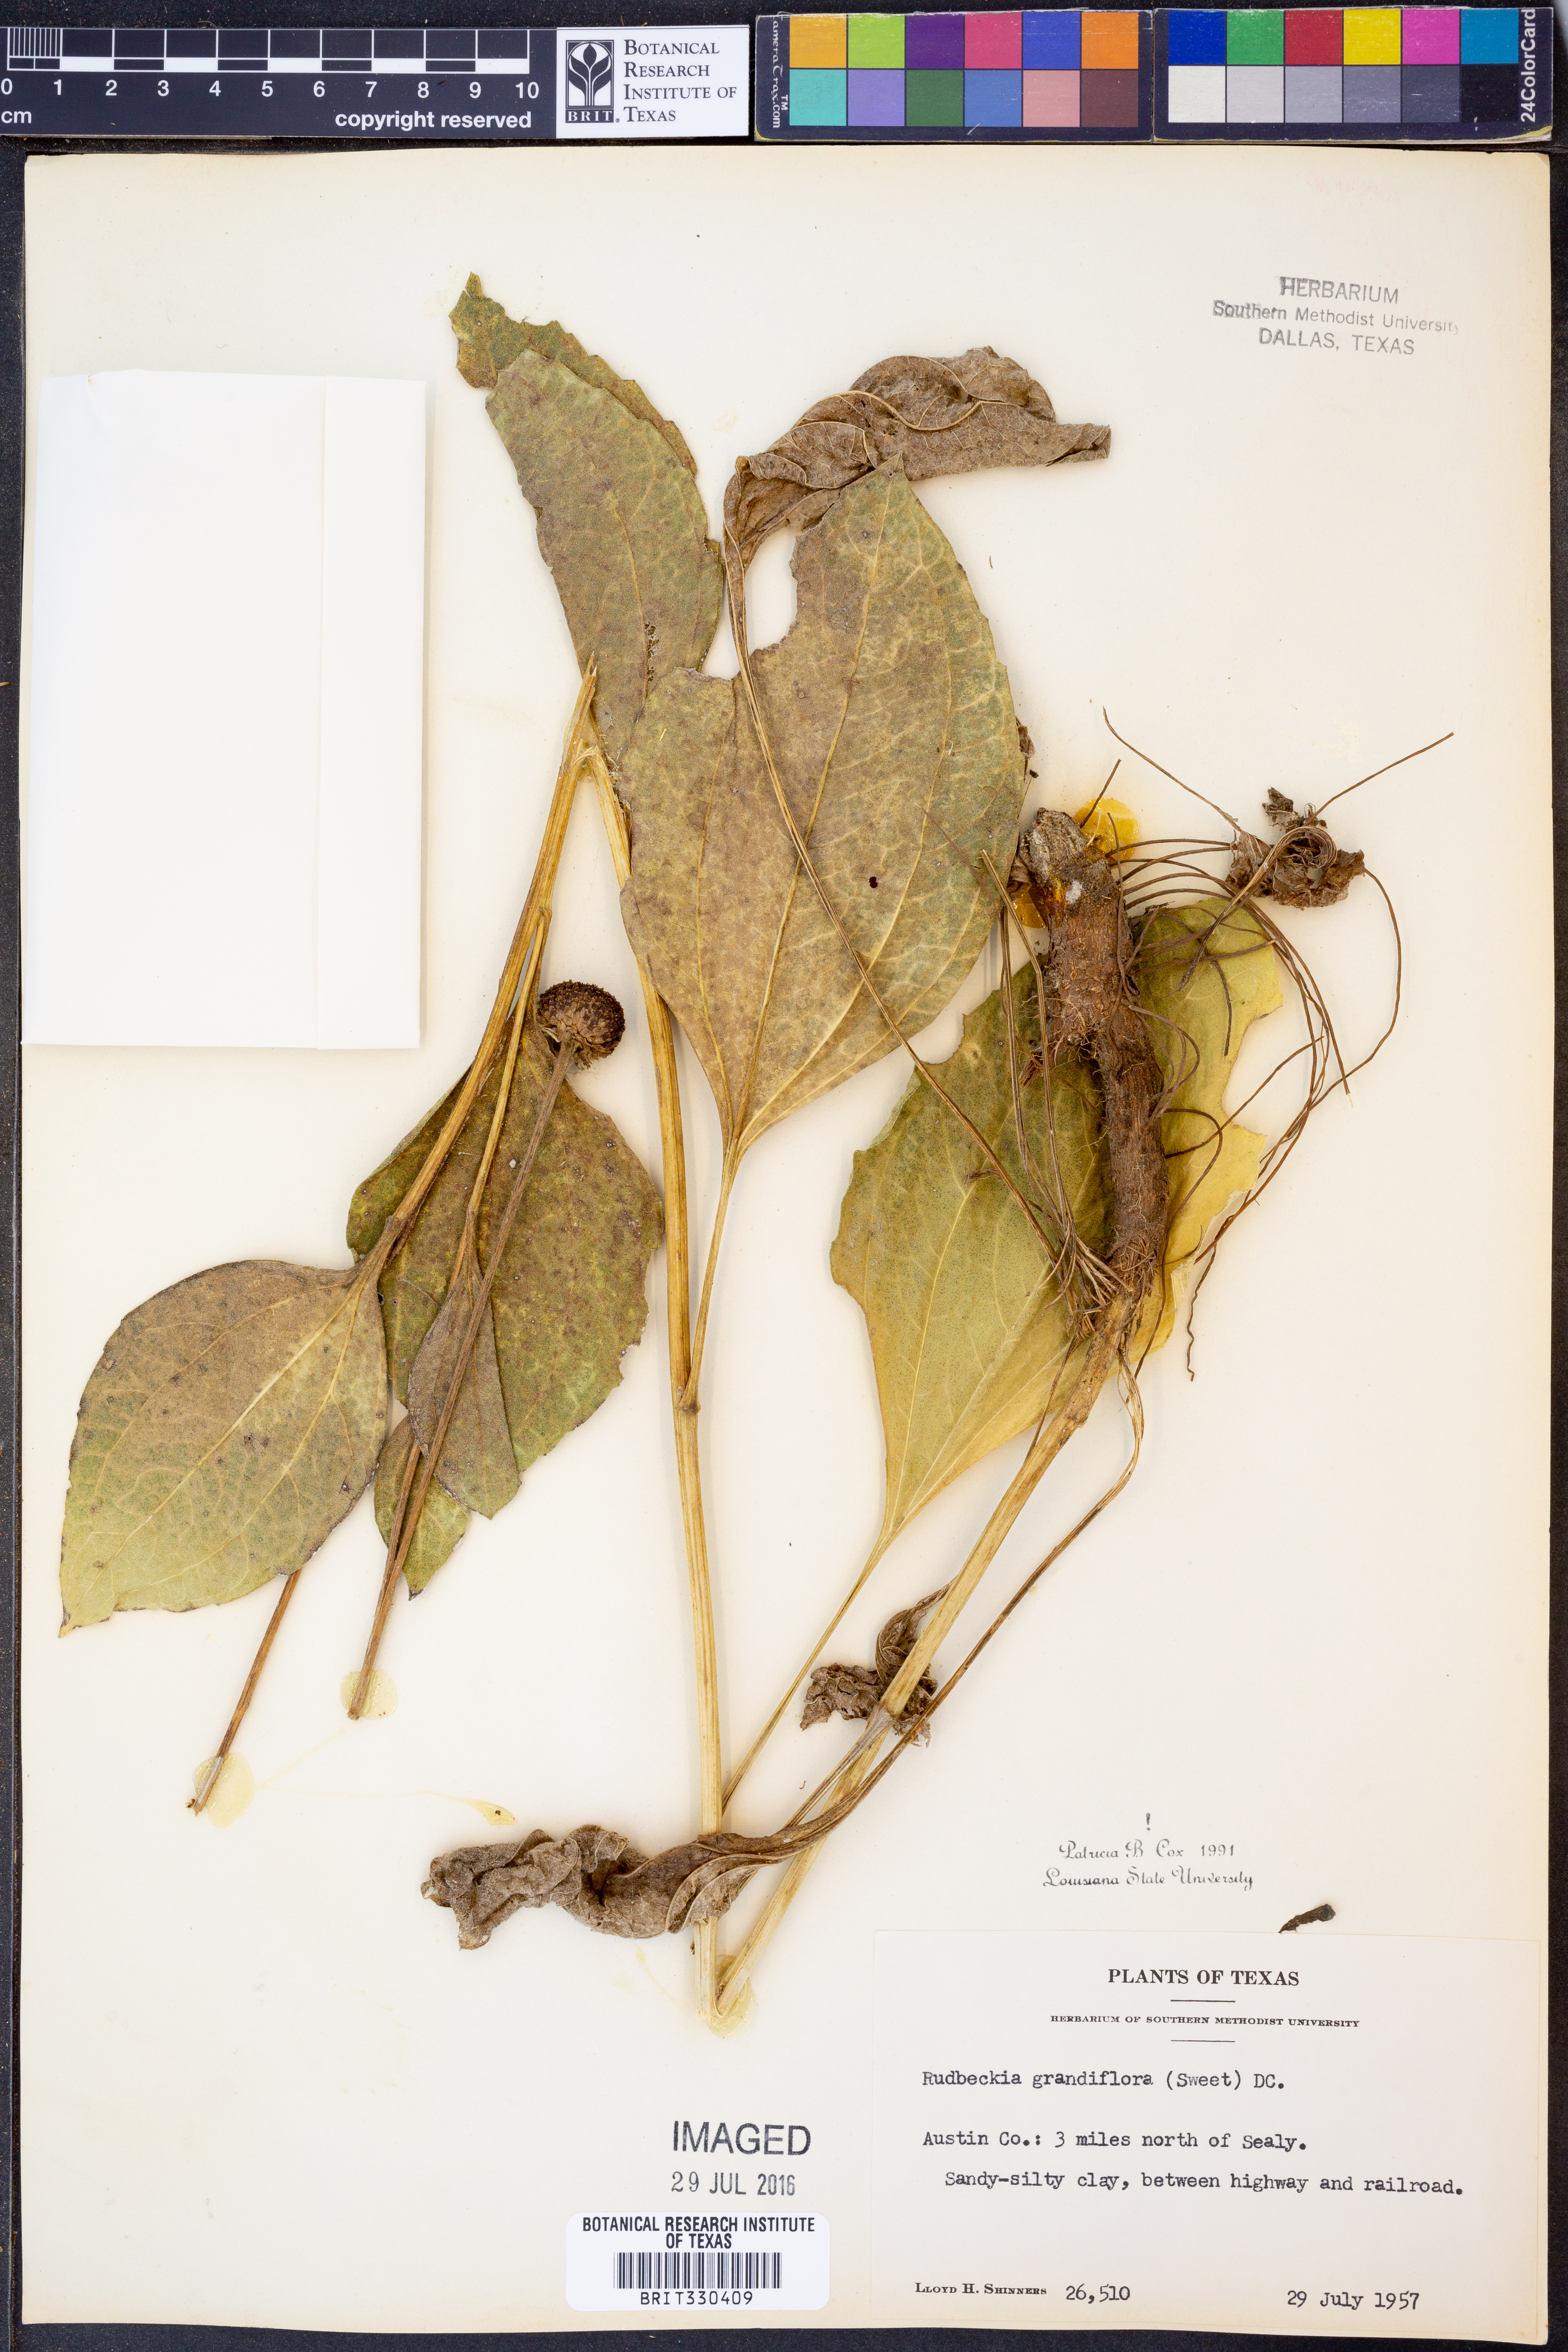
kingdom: Plantae
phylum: Tracheophyta
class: Magnoliopsida
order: Asterales
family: Asteraceae
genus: Rudbeckia
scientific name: Rudbeckia grandiflora
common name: Large-flowered coneflower
